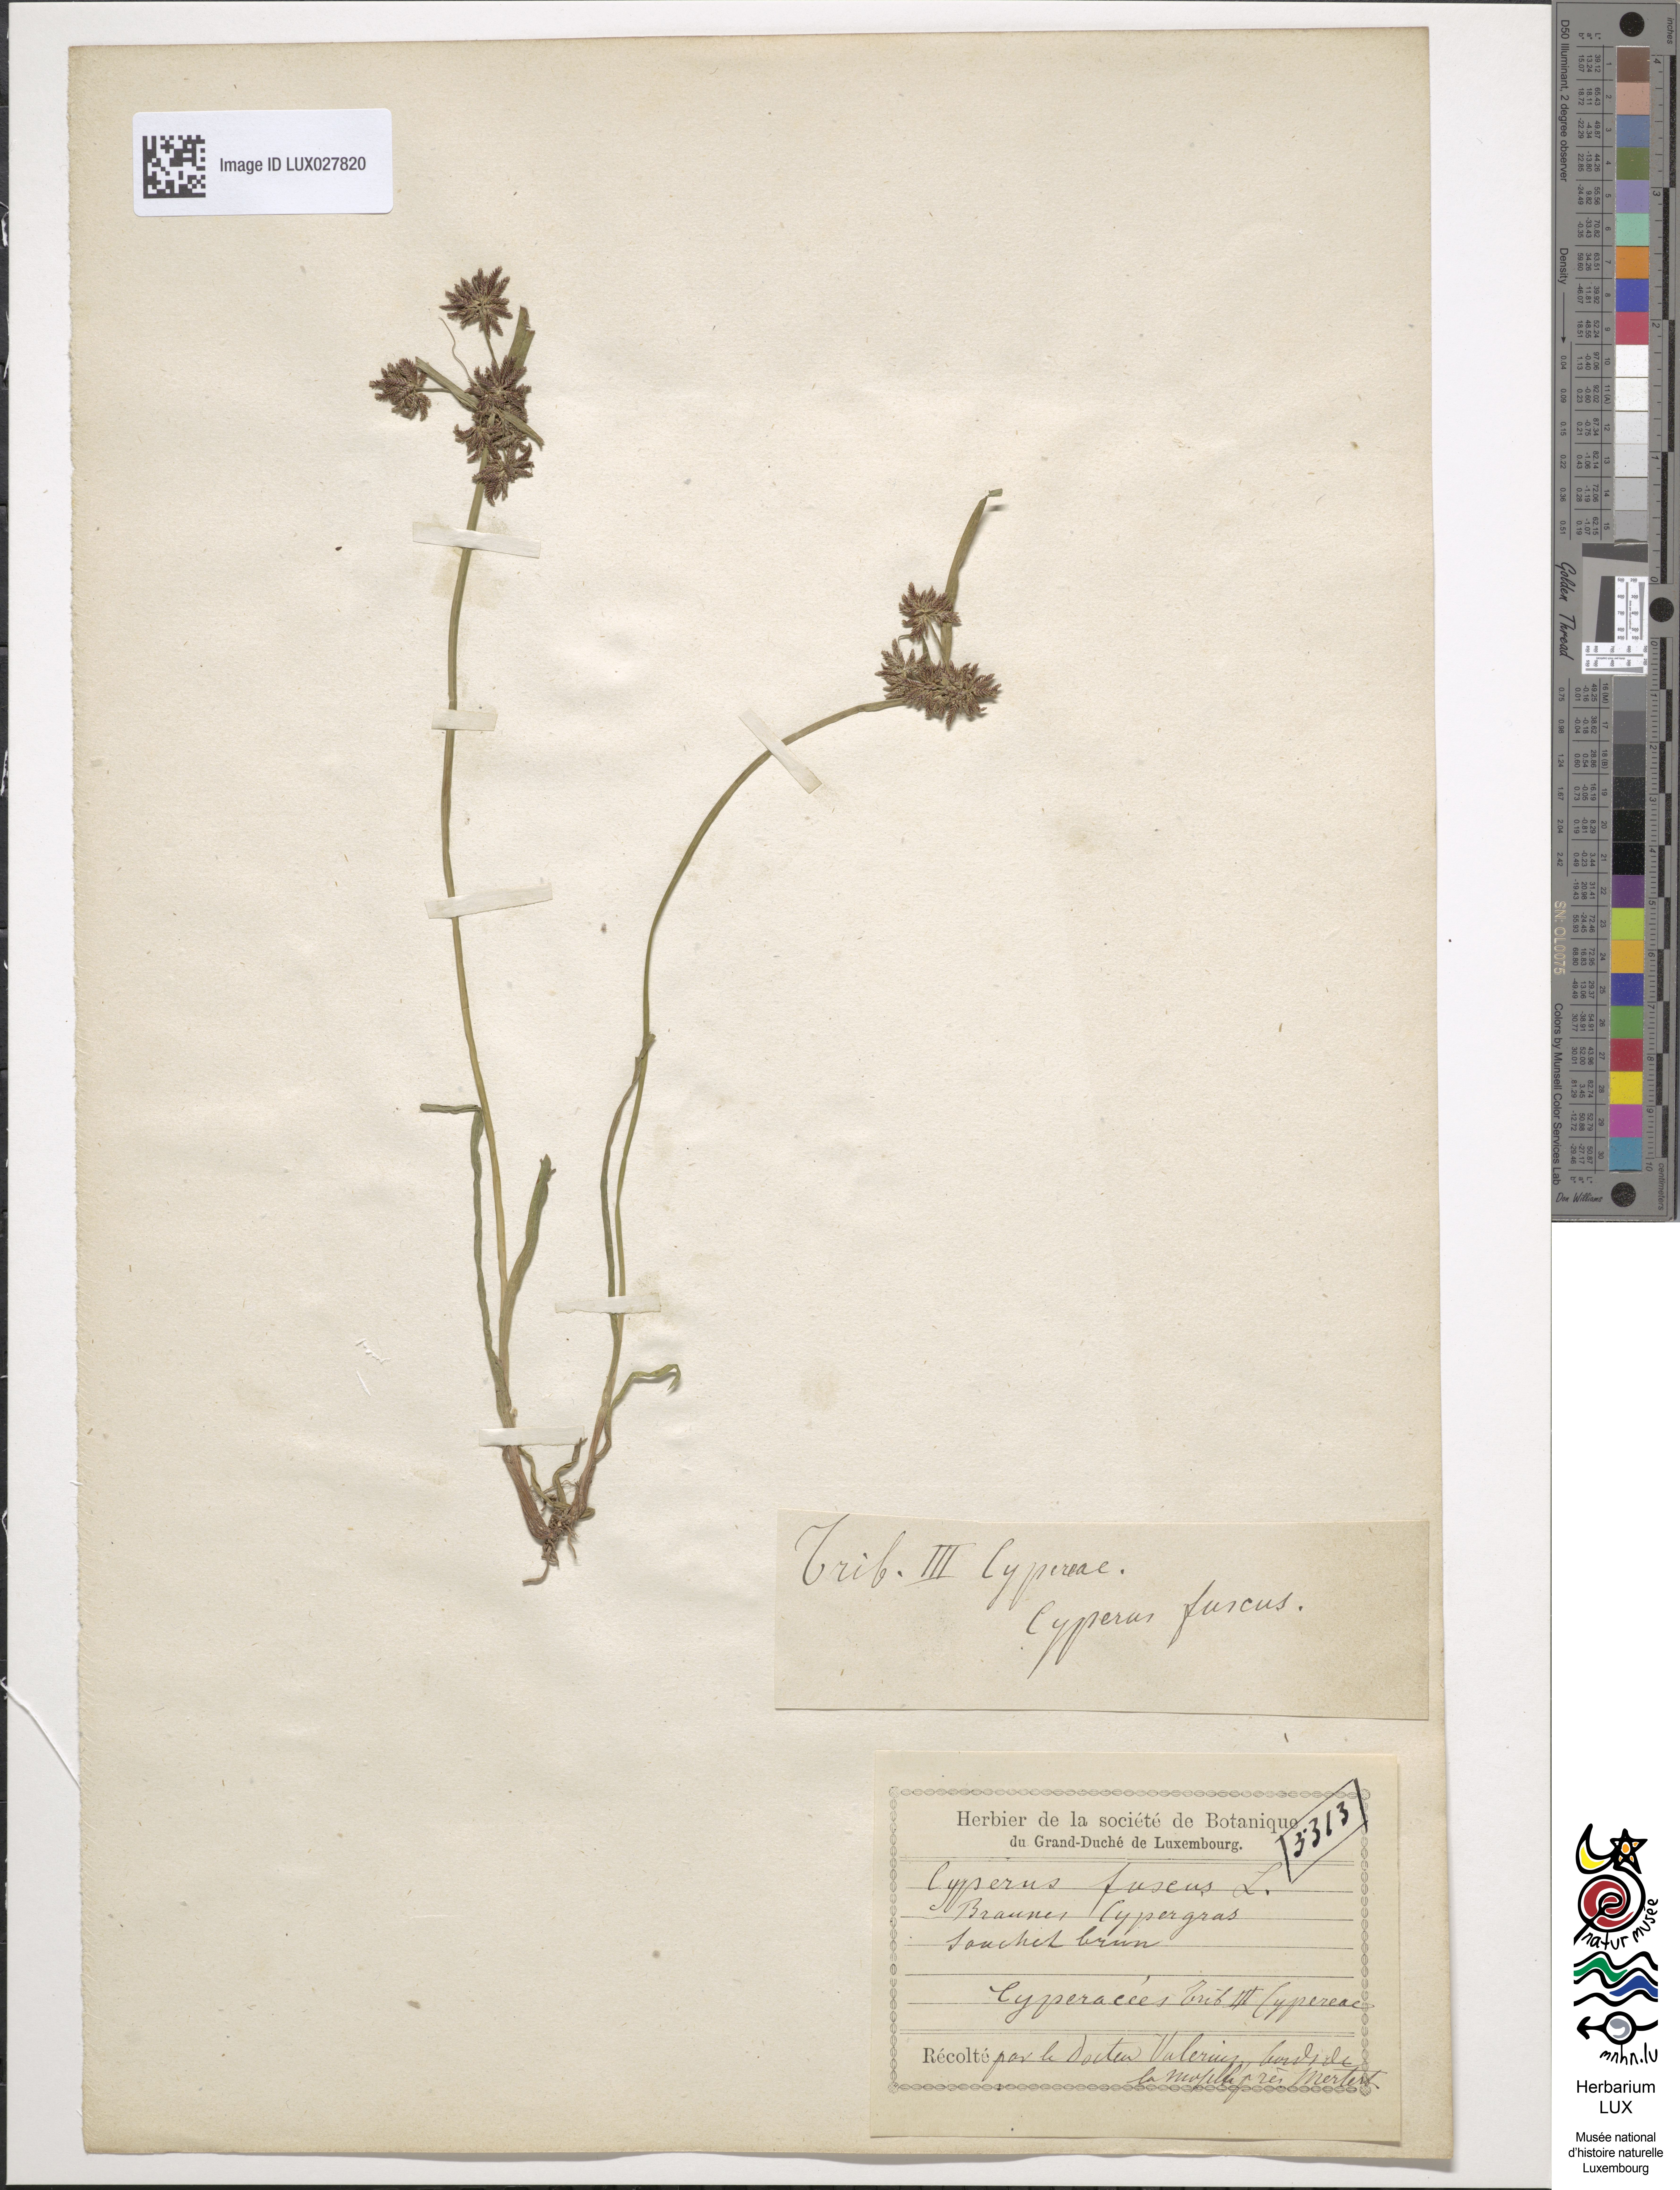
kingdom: Plantae
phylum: Tracheophyta
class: Liliopsida
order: Poales
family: Cyperaceae
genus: Cyperus
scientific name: Cyperus fuscus
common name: Brown galingale
